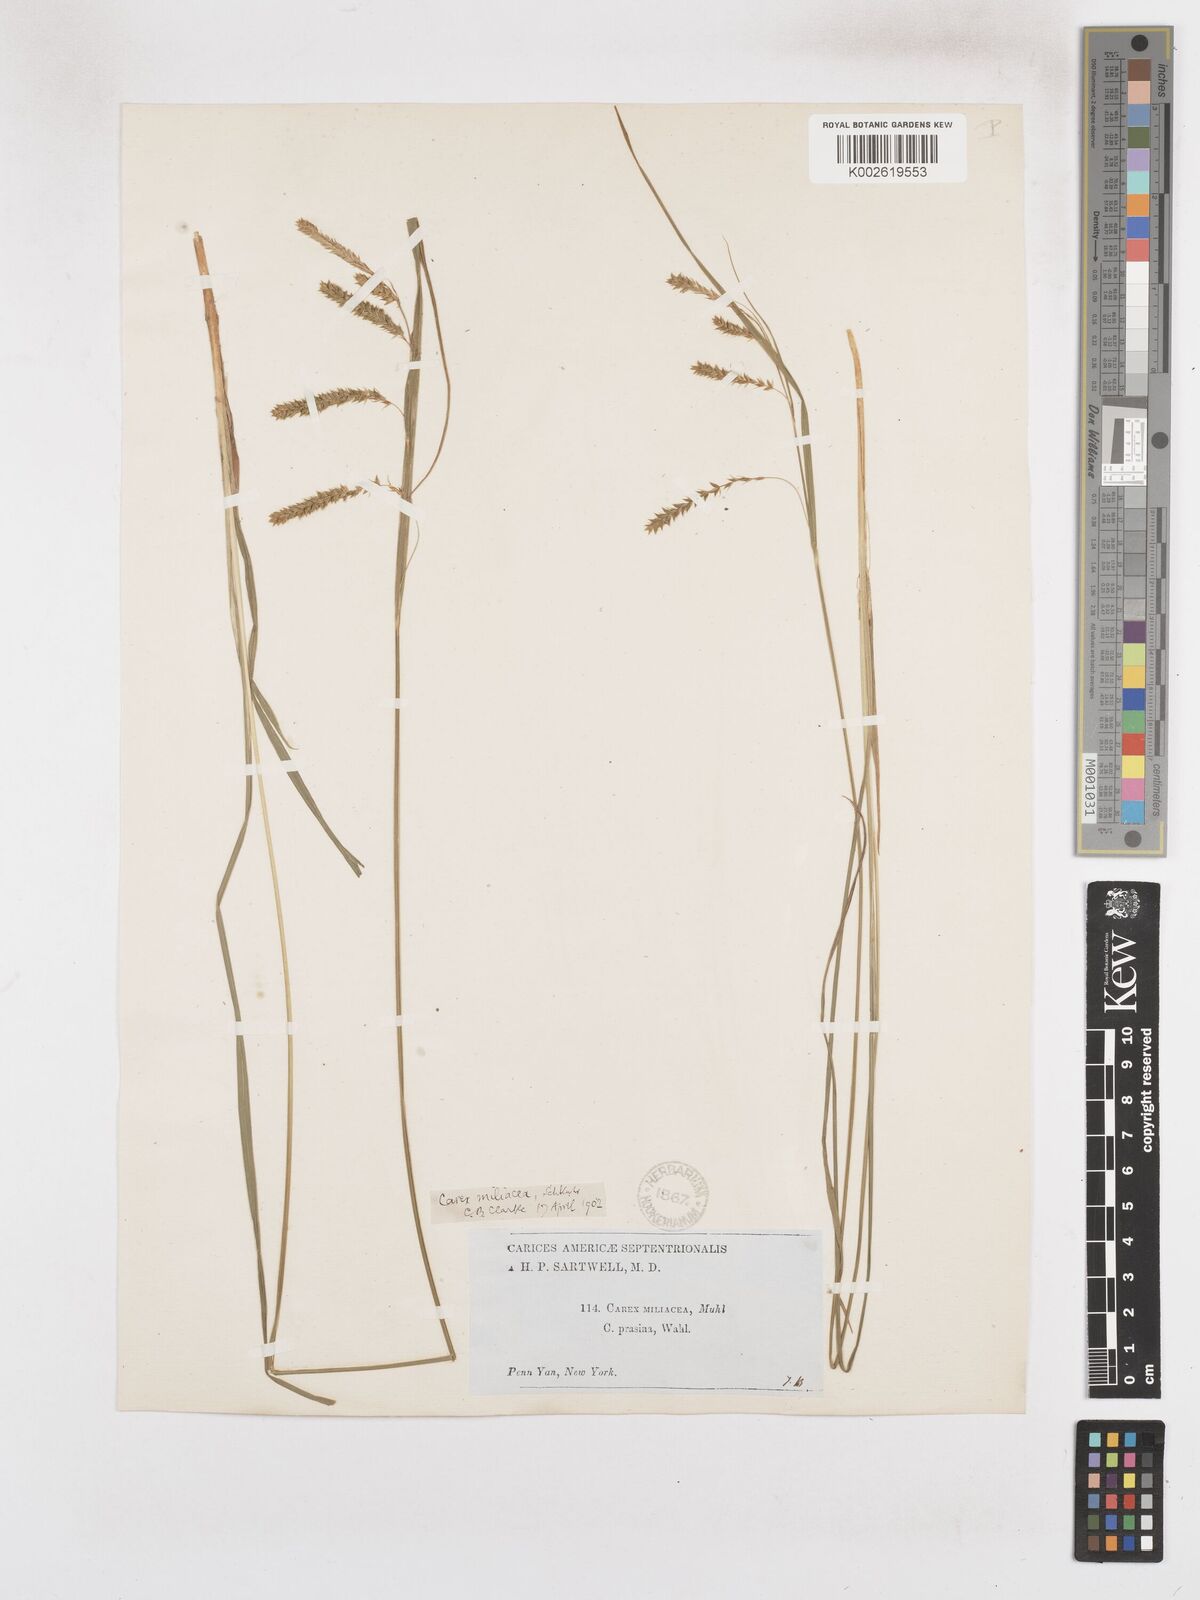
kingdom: Plantae
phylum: Tracheophyta
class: Liliopsida
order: Poales
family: Cyperaceae
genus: Carex
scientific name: Carex prasina
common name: Drooping sedge
